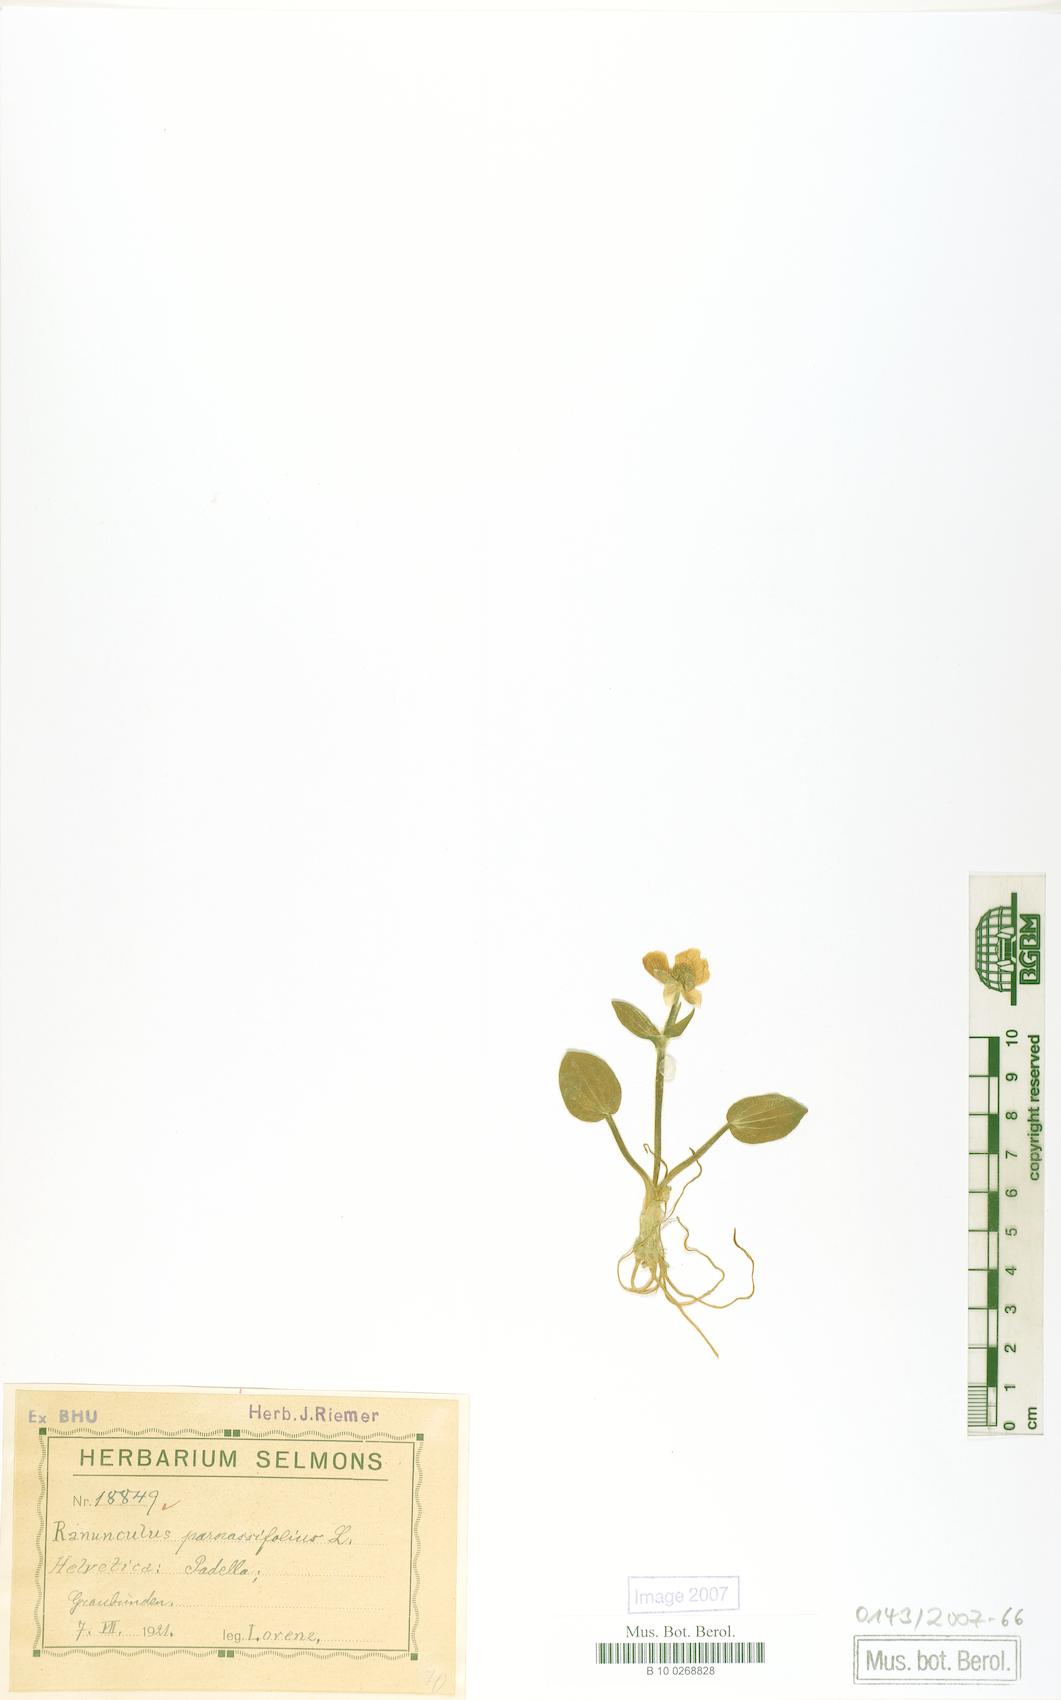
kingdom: Plantae
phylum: Tracheophyta
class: Magnoliopsida
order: Ranunculales
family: Ranunculaceae
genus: Ranunculus
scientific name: Ranunculus parnassiifolius
